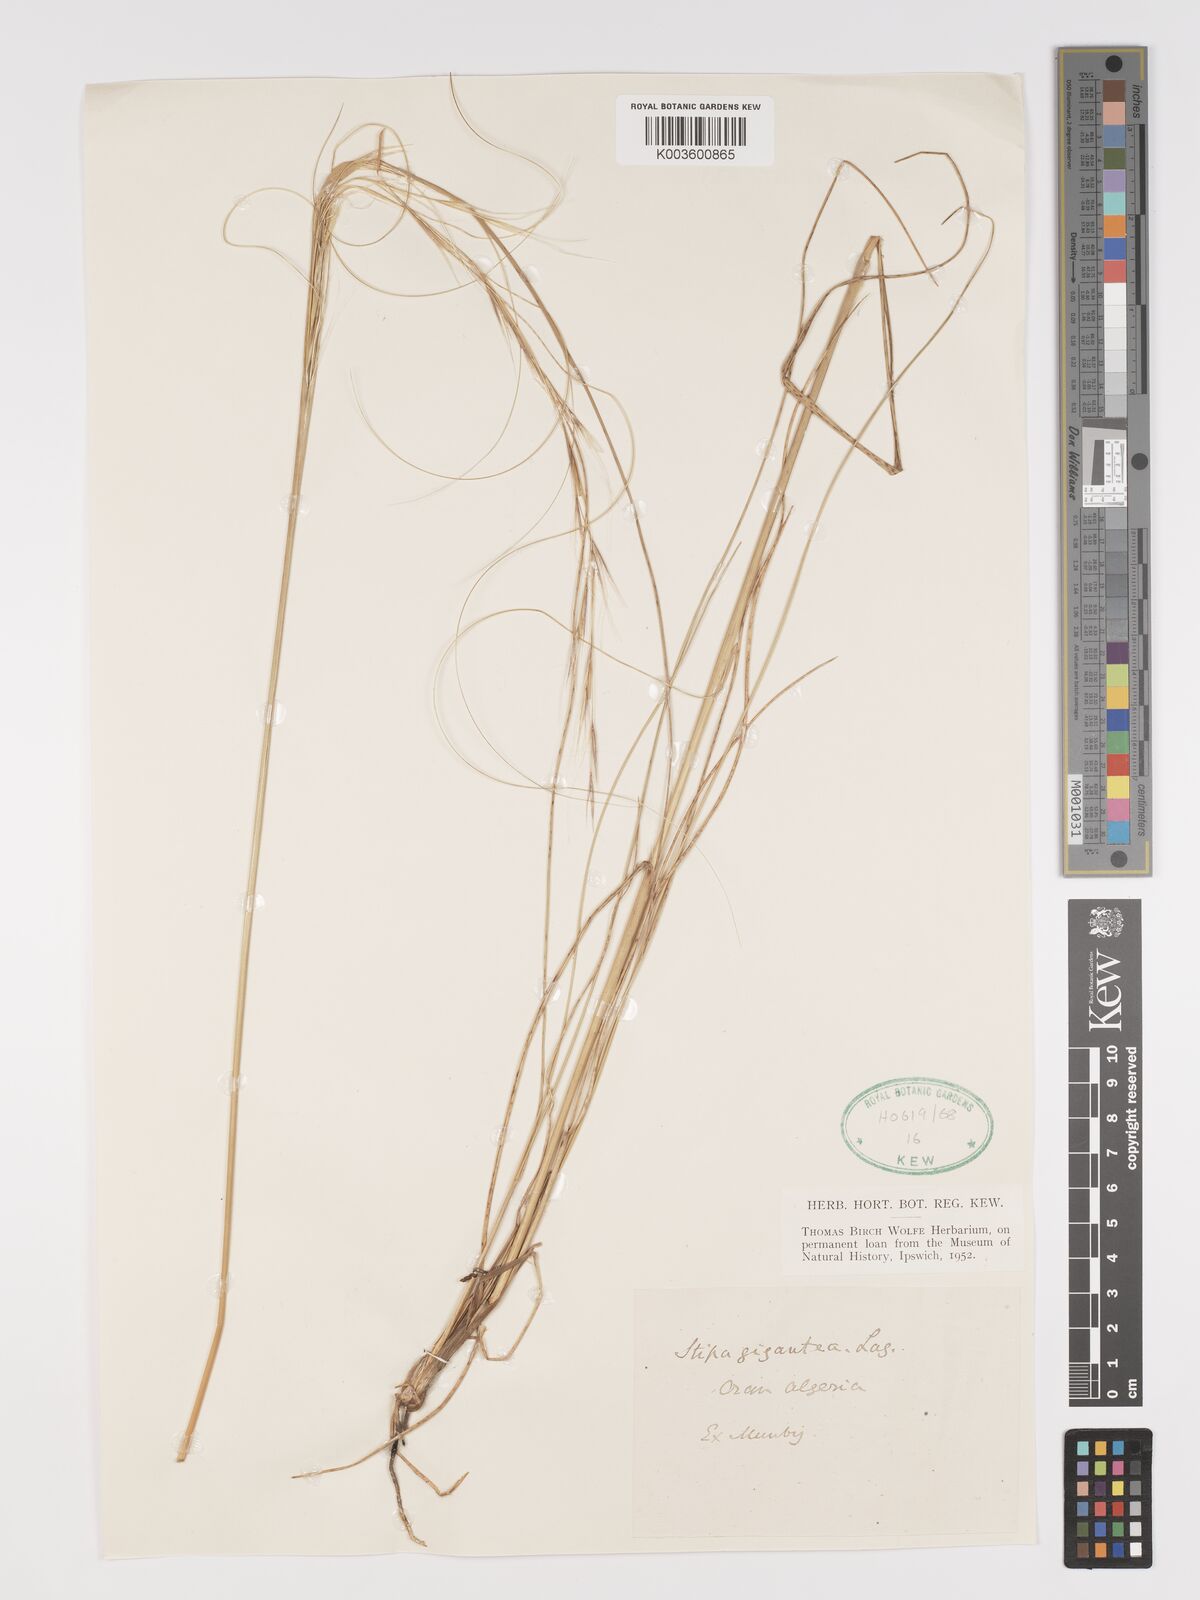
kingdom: Plantae
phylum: Tracheophyta
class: Liliopsida
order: Poales
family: Poaceae
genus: Stipa
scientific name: Stipa lagascae
